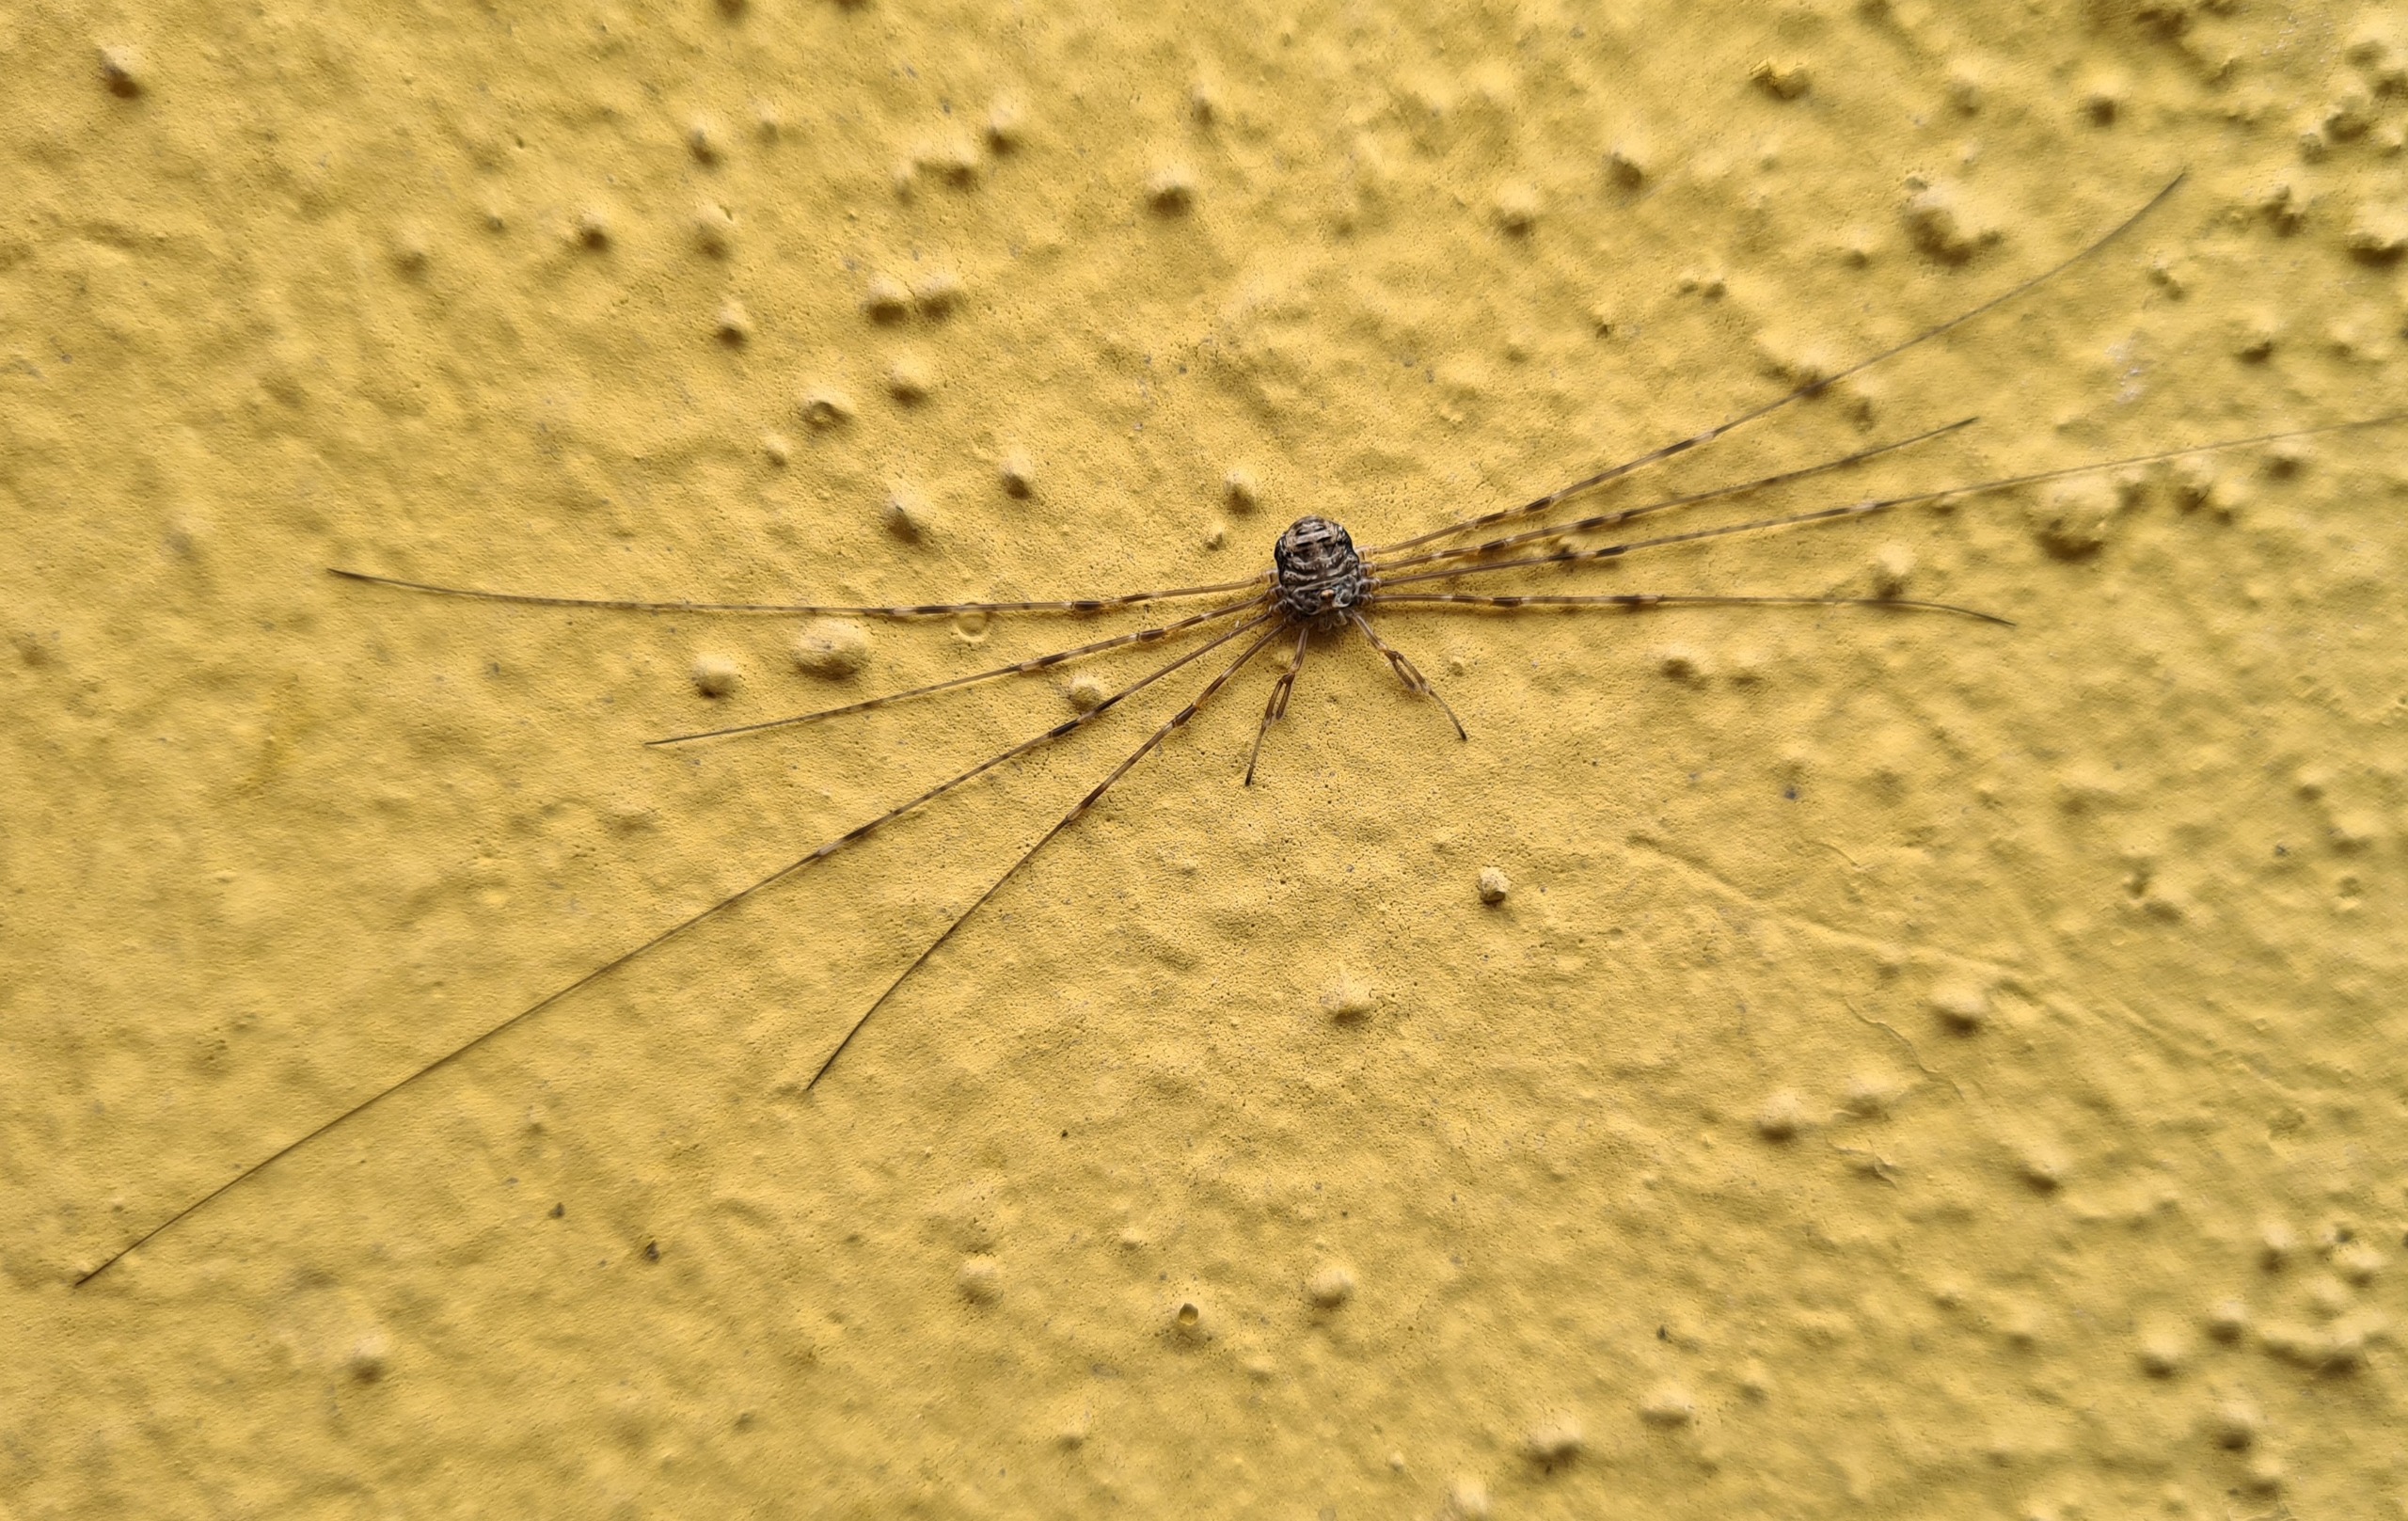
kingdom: Animalia
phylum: Arthropoda
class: Arachnida
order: Opiliones
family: Phalangiidae
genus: Dicranopalpus
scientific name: Dicranopalpus ramosus
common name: Gaffelmejer
